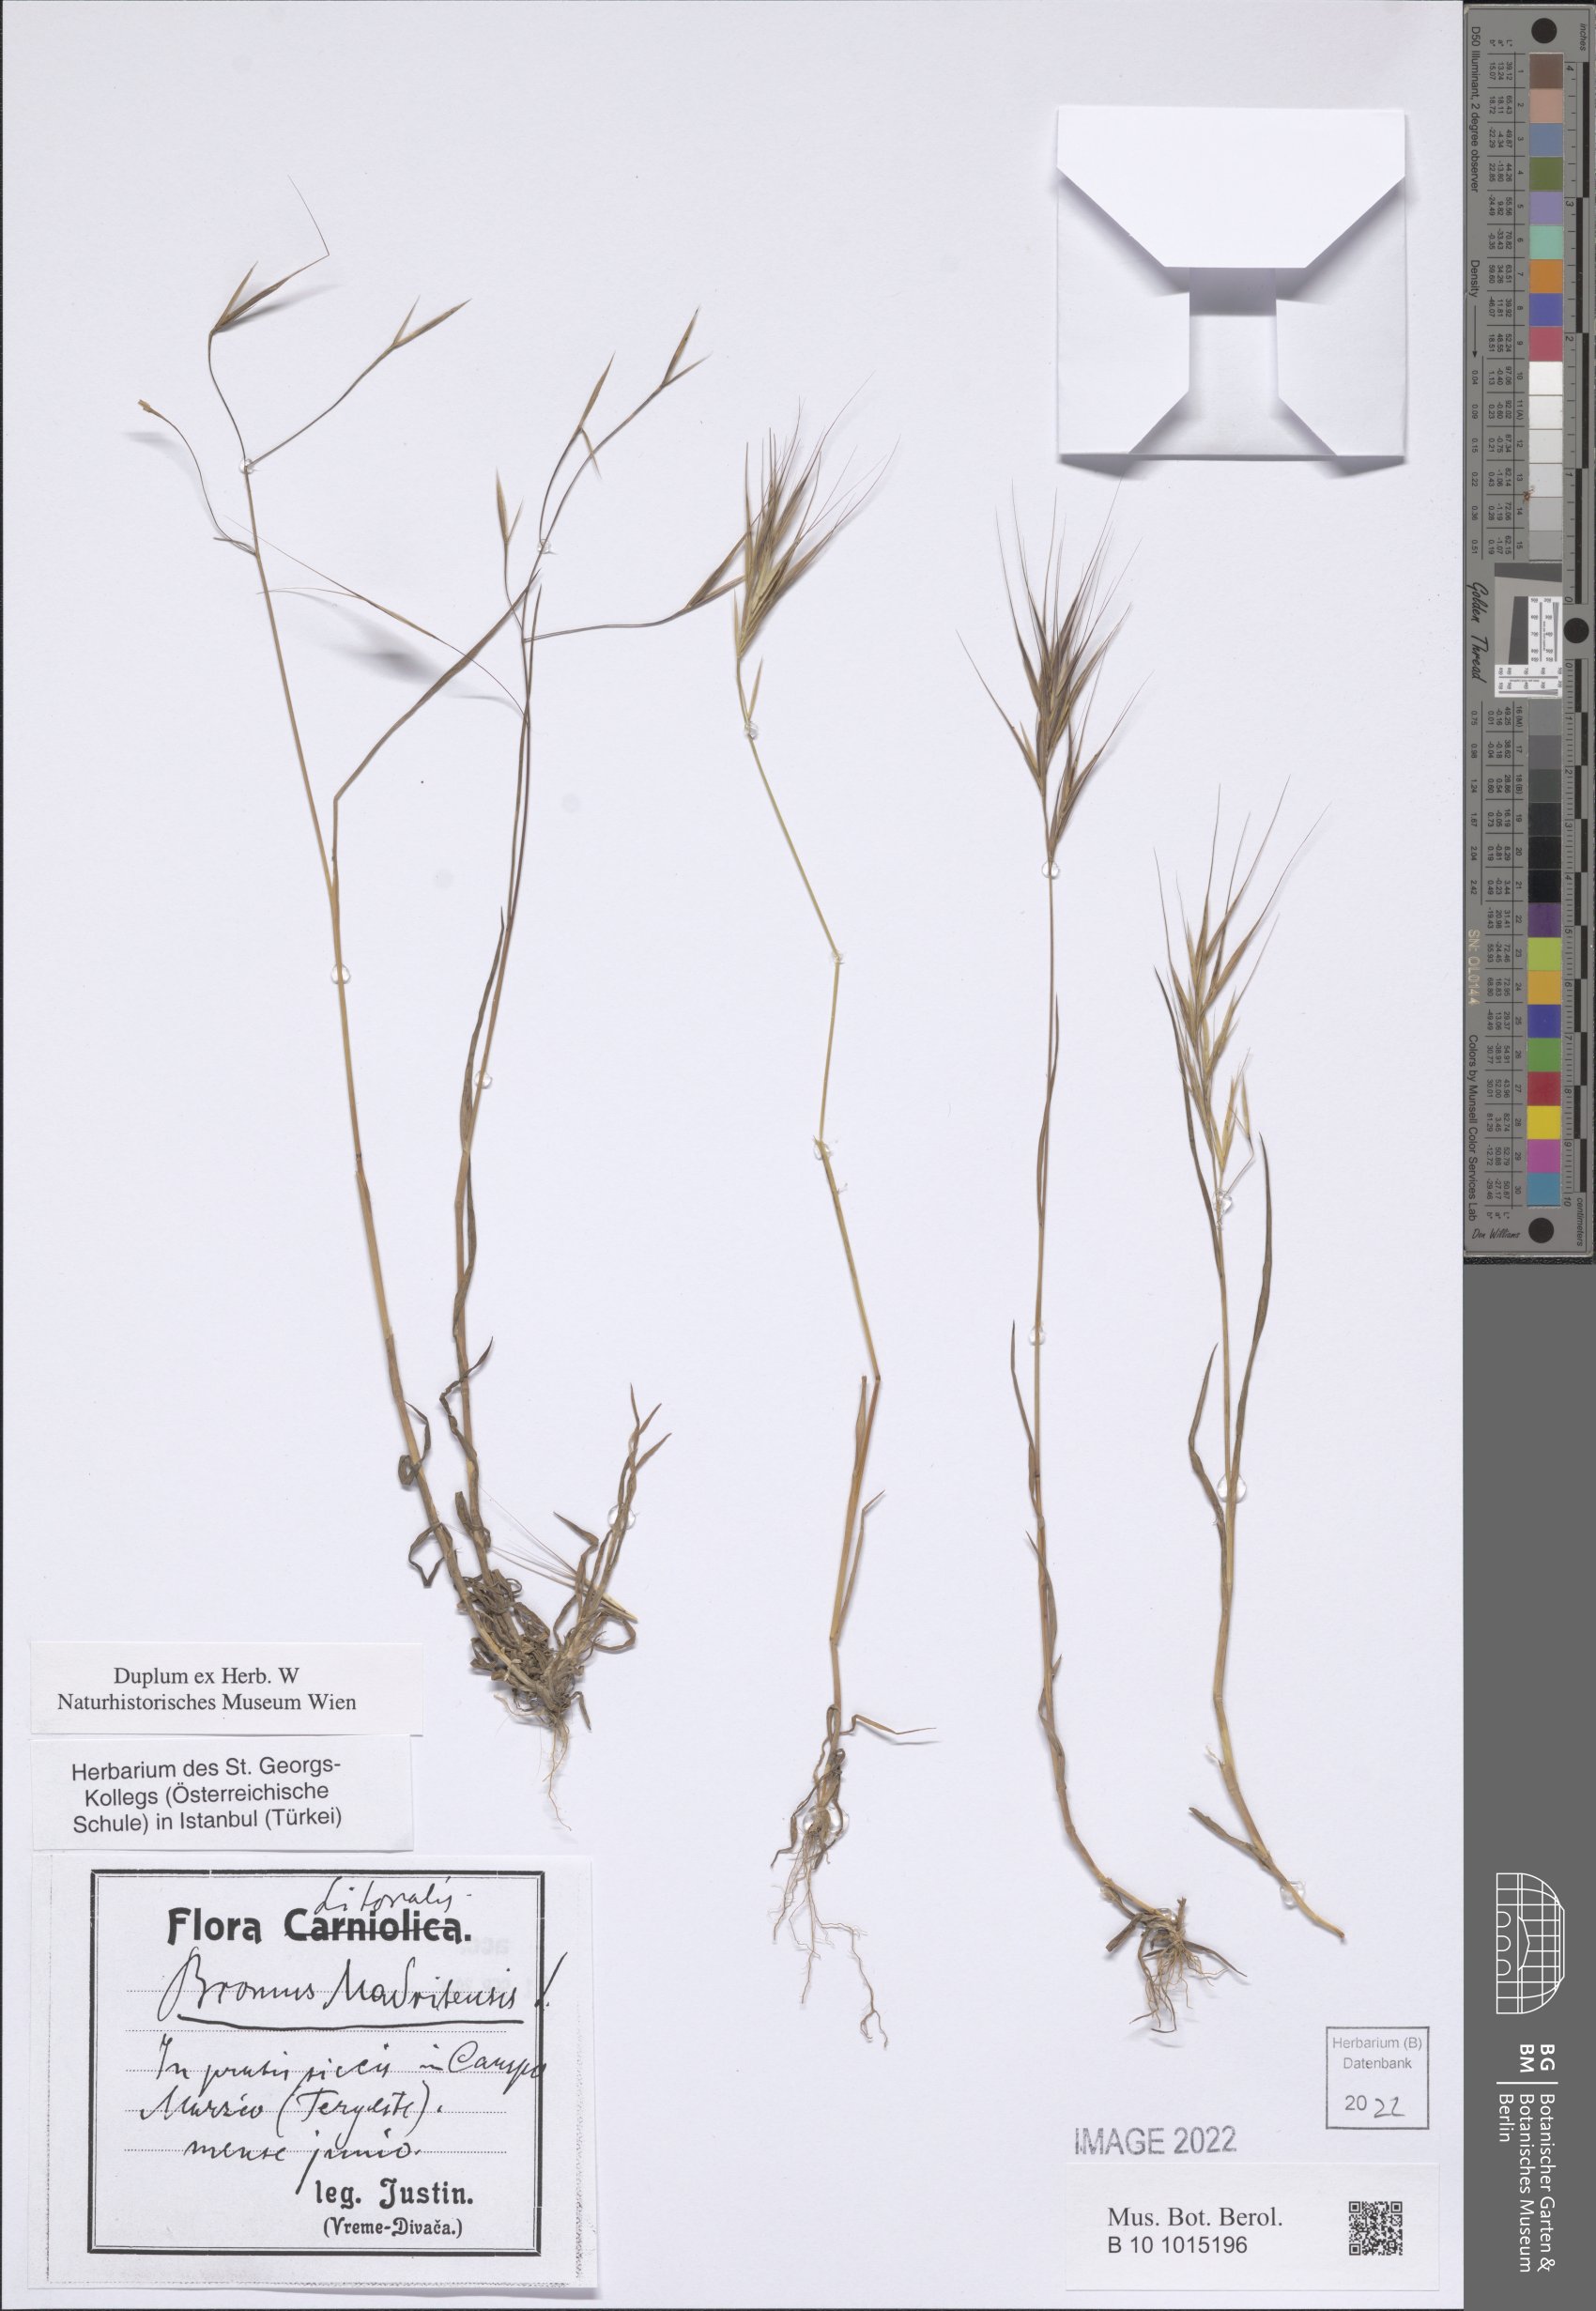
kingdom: Plantae
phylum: Tracheophyta
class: Liliopsida
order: Poales
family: Poaceae
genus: Bromus
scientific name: Bromus madritensis
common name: Compact brome
